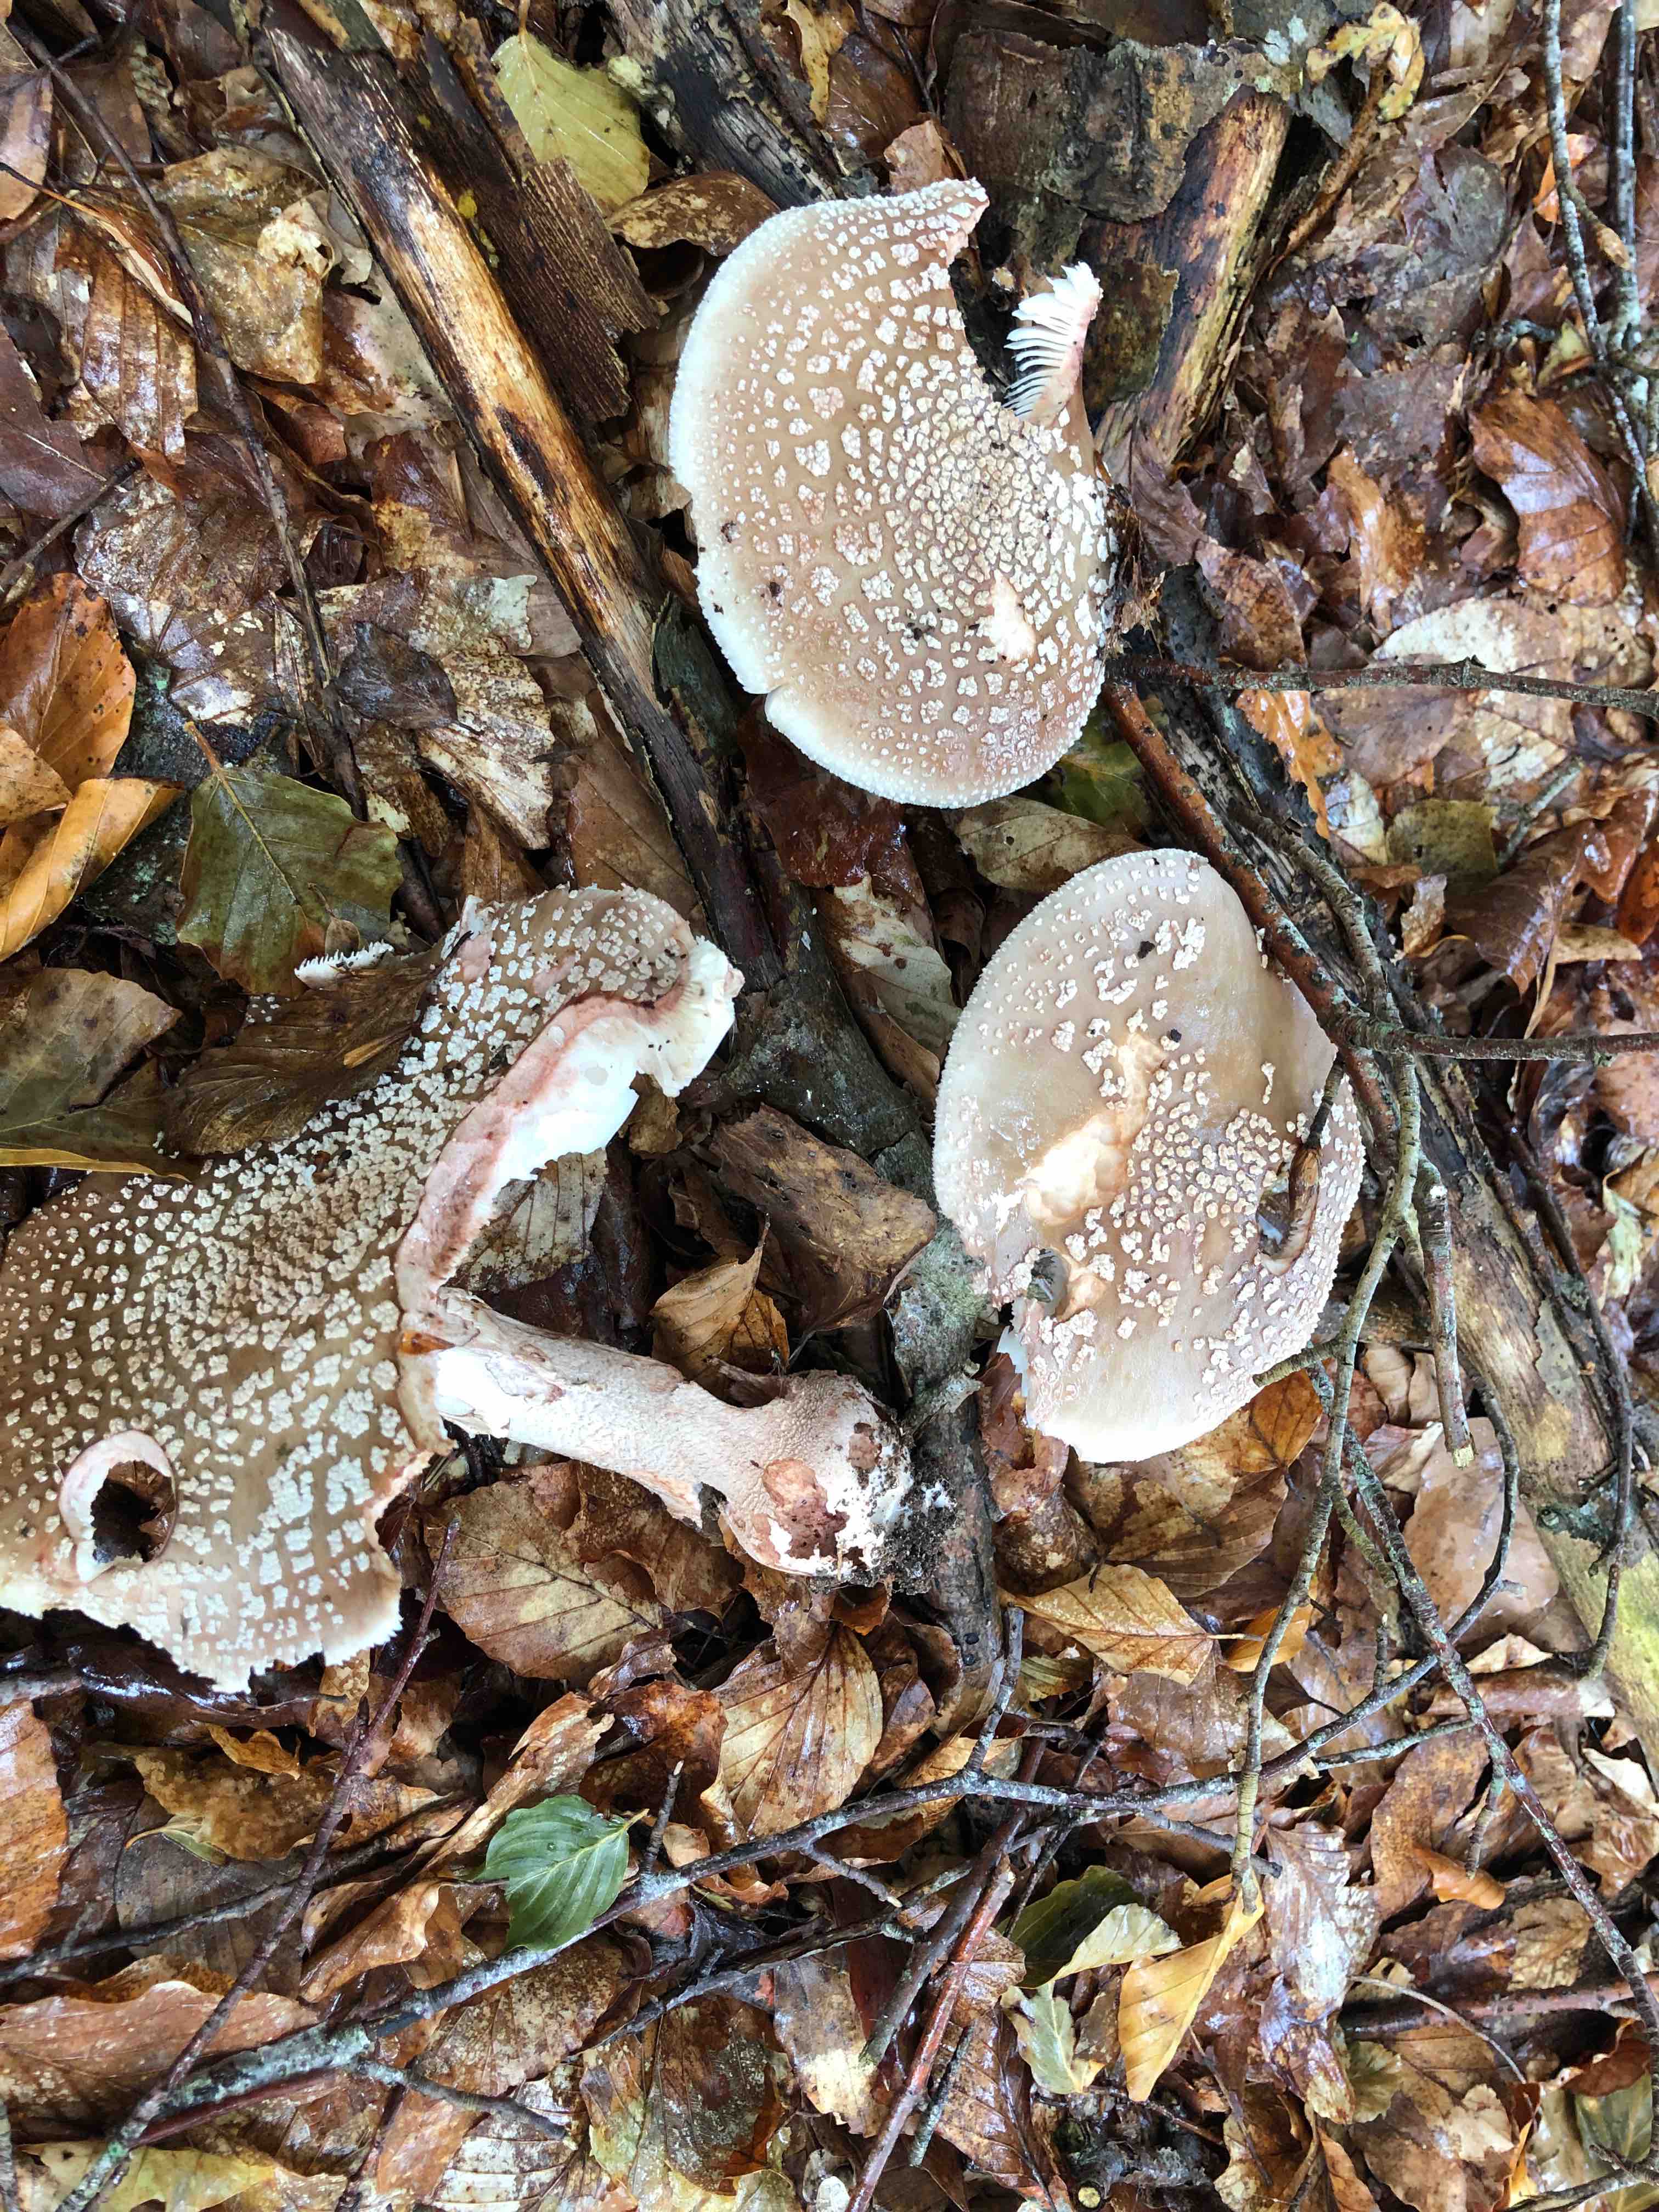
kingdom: Fungi
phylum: Basidiomycota
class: Agaricomycetes
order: Agaricales
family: Amanitaceae
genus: Amanita
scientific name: Amanita rubescens
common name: rødmende fluesvamp
